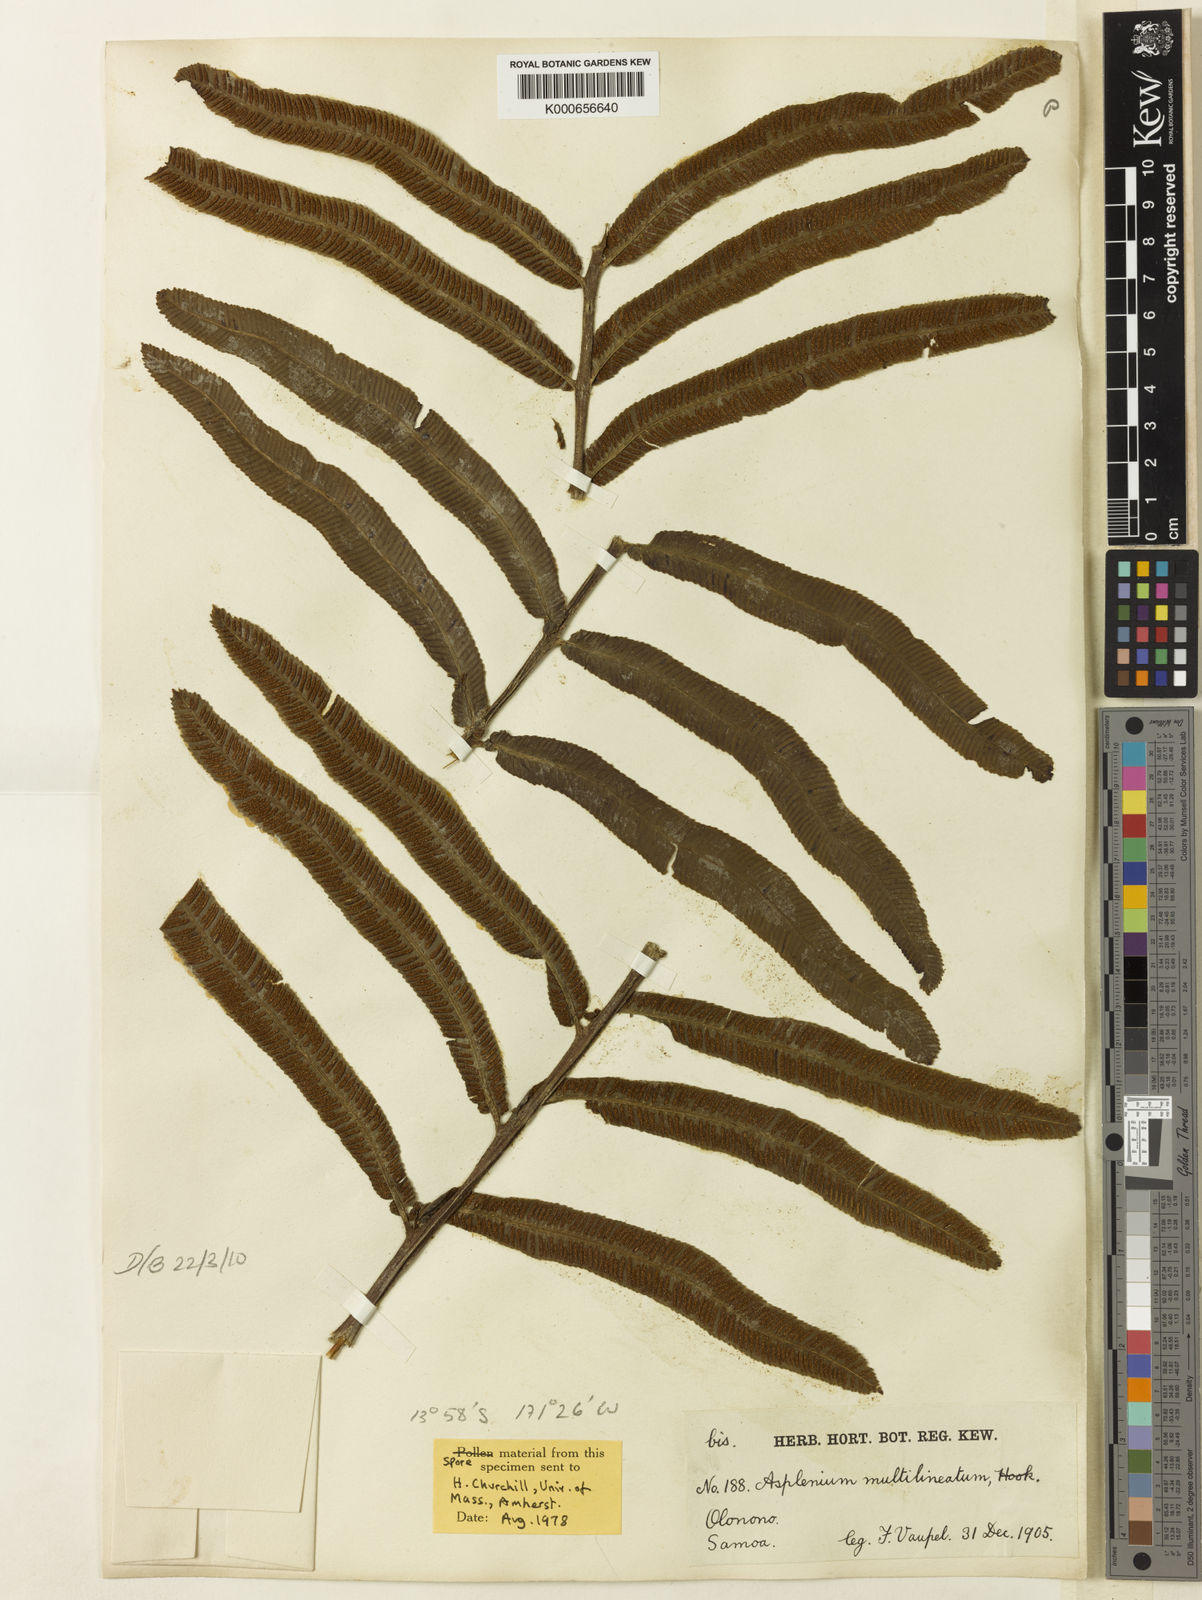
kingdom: Plantae
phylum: Tracheophyta
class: Polypodiopsida
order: Polypodiales
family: Aspleniaceae
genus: Asplenium
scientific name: Asplenium marattioides
